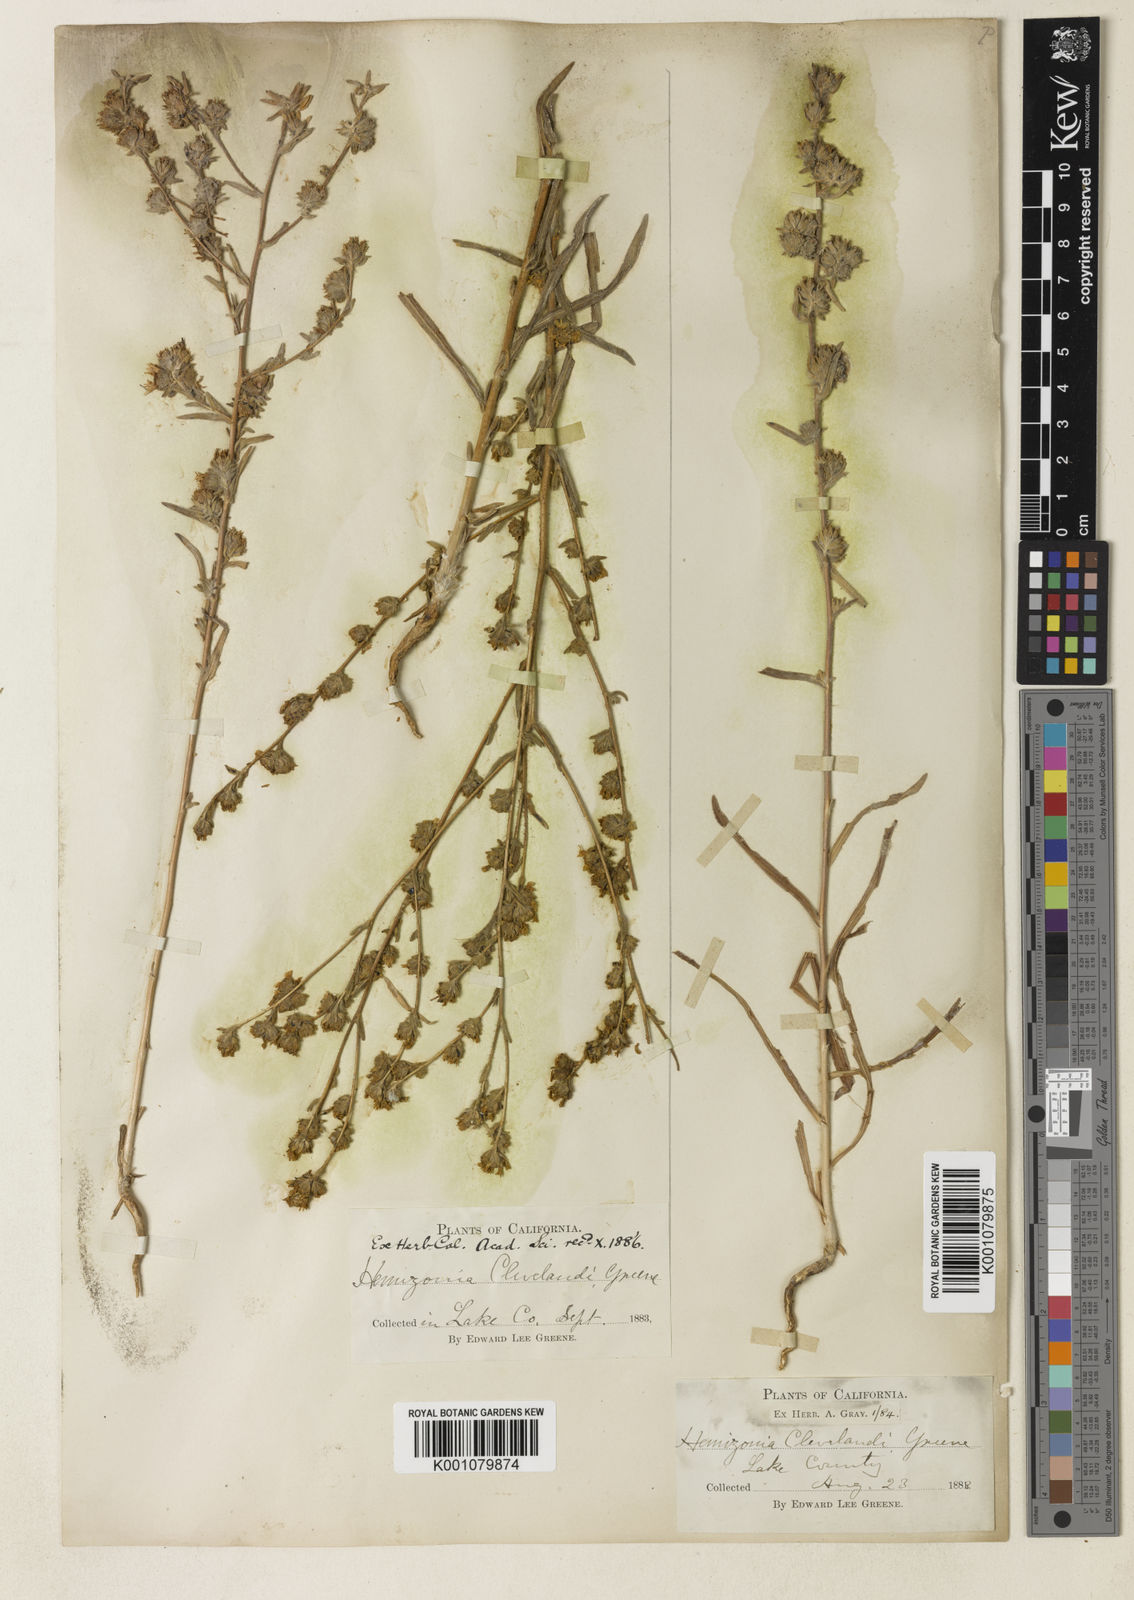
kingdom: Plantae
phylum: Tracheophyta
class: Magnoliopsida
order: Asterales
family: Asteraceae
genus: Hemizonia
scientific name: Hemizonia congesta
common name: Hayfield tarweed
